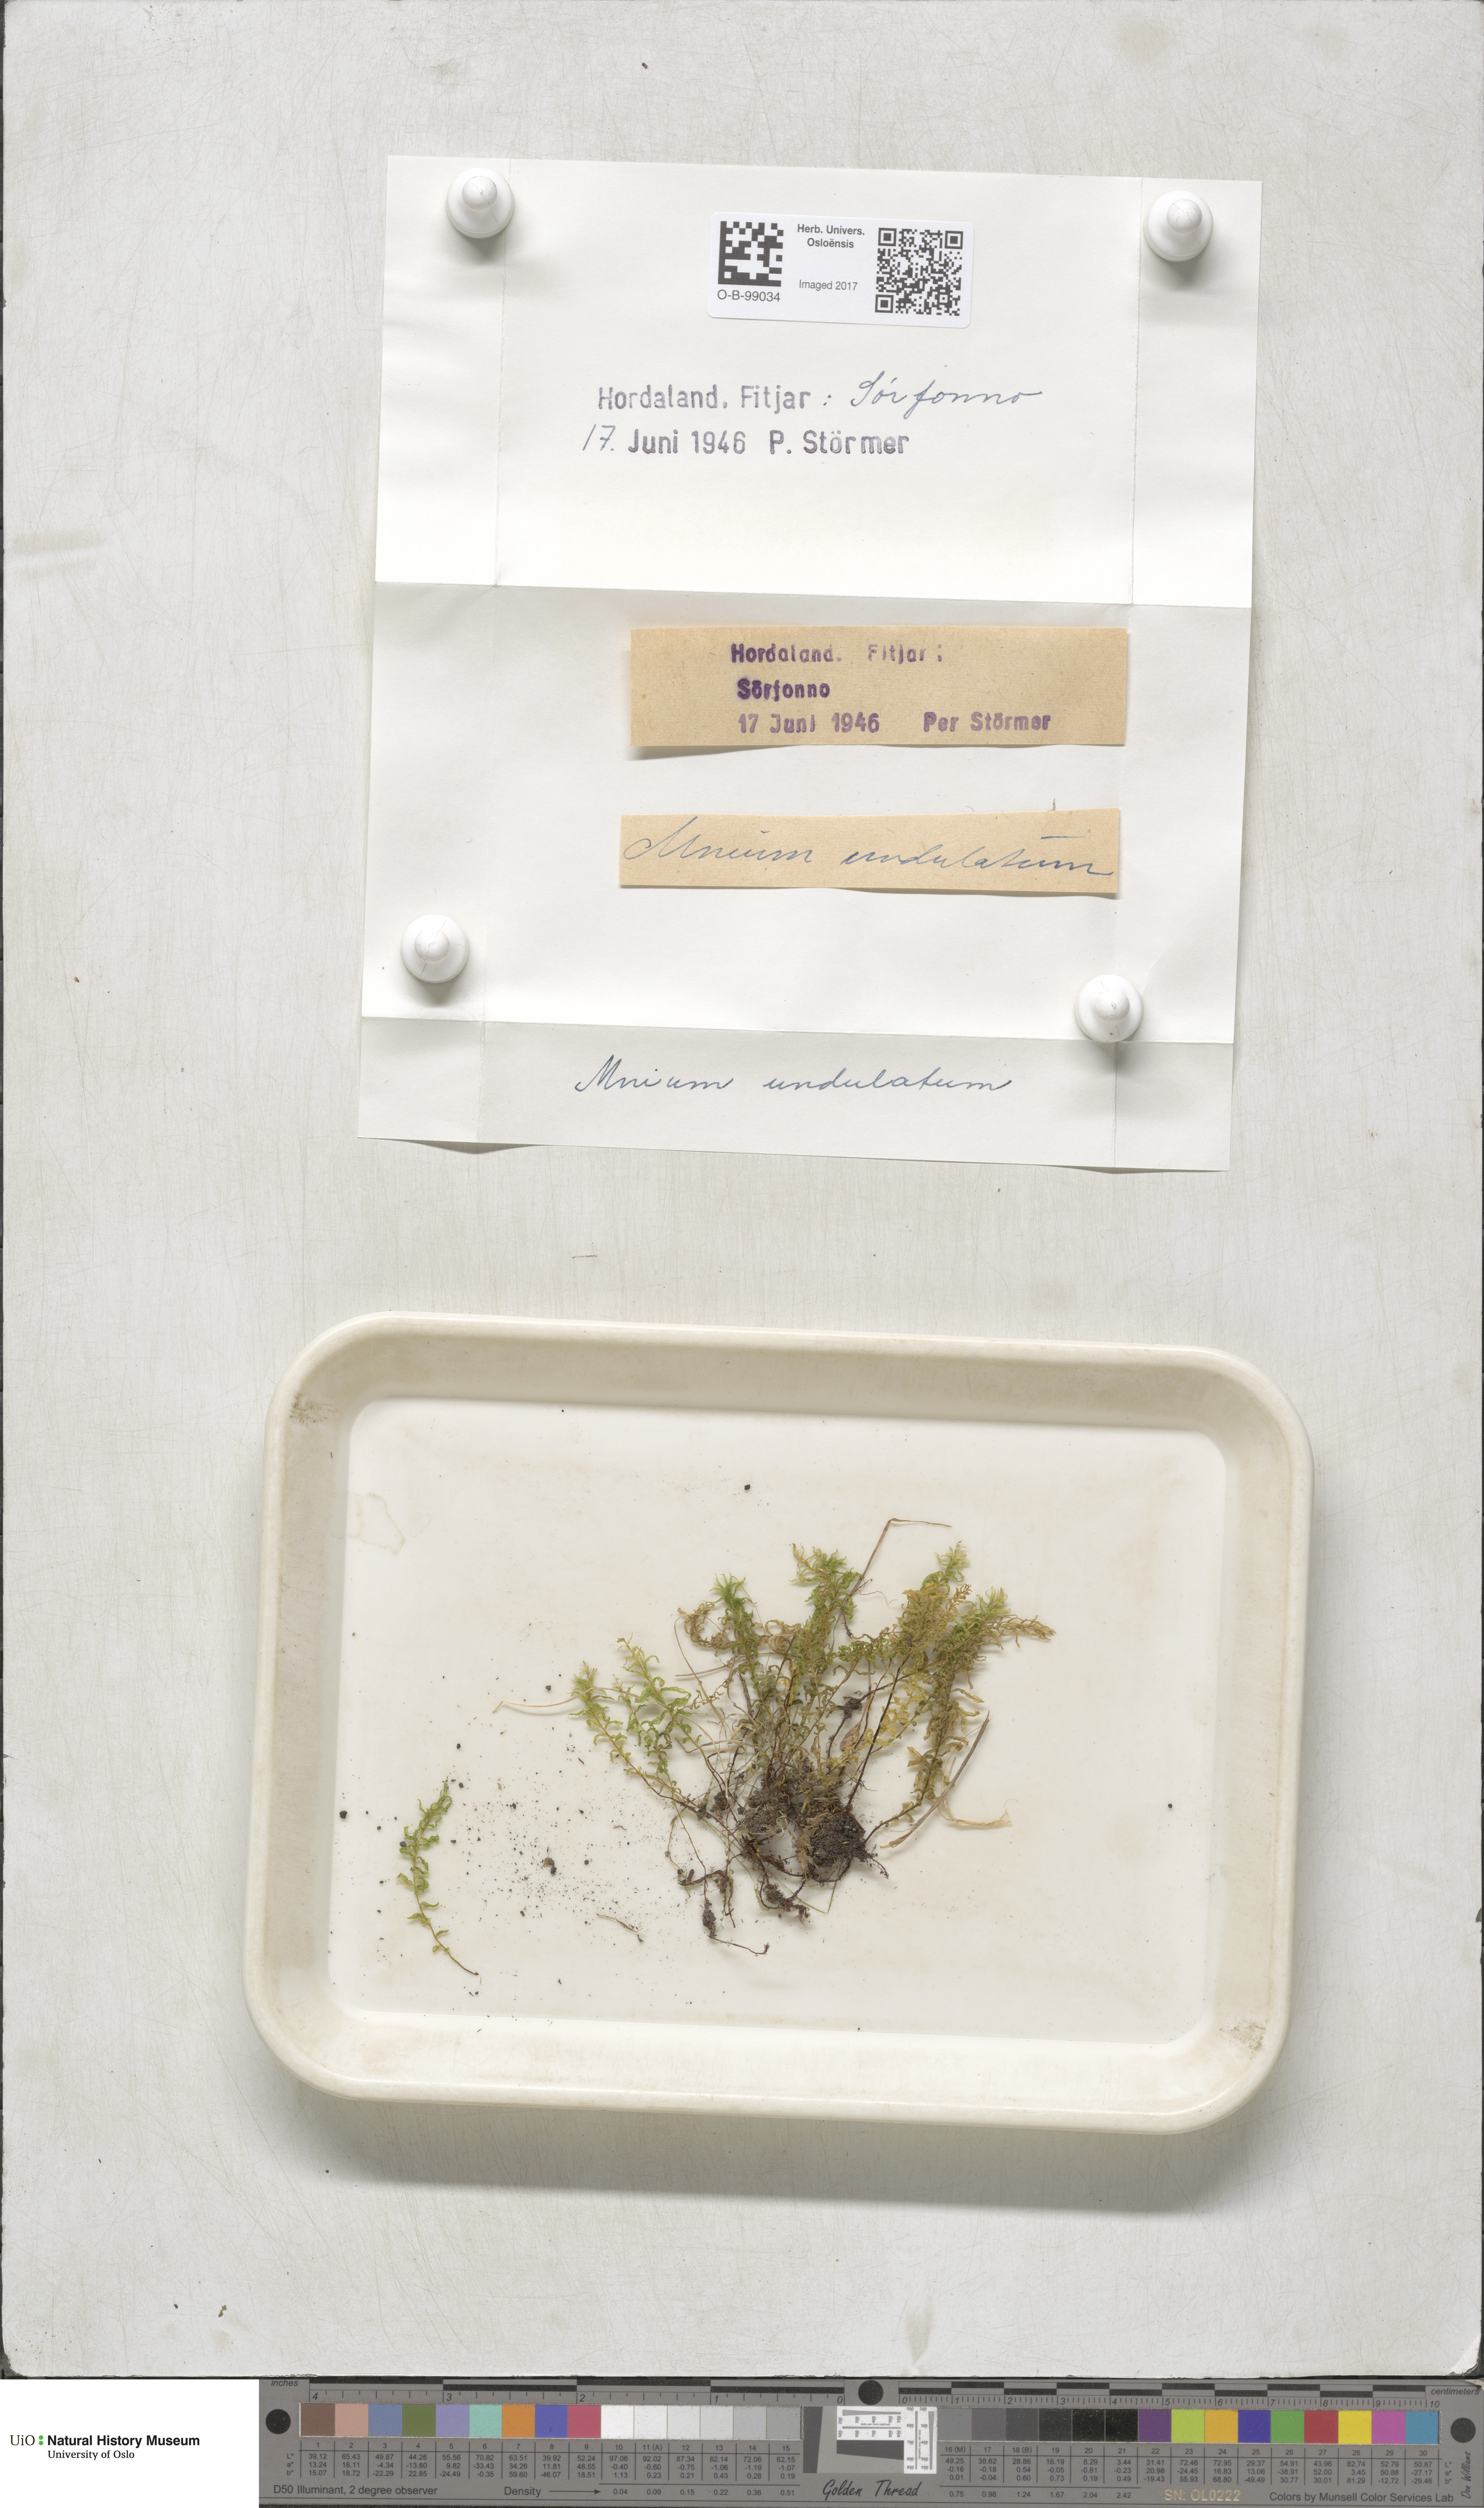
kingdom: Plantae
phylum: Bryophyta
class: Bryopsida
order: Bryales
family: Mniaceae
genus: Plagiomnium
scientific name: Plagiomnium undulatum
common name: Hart's-tongue thyme-moss
